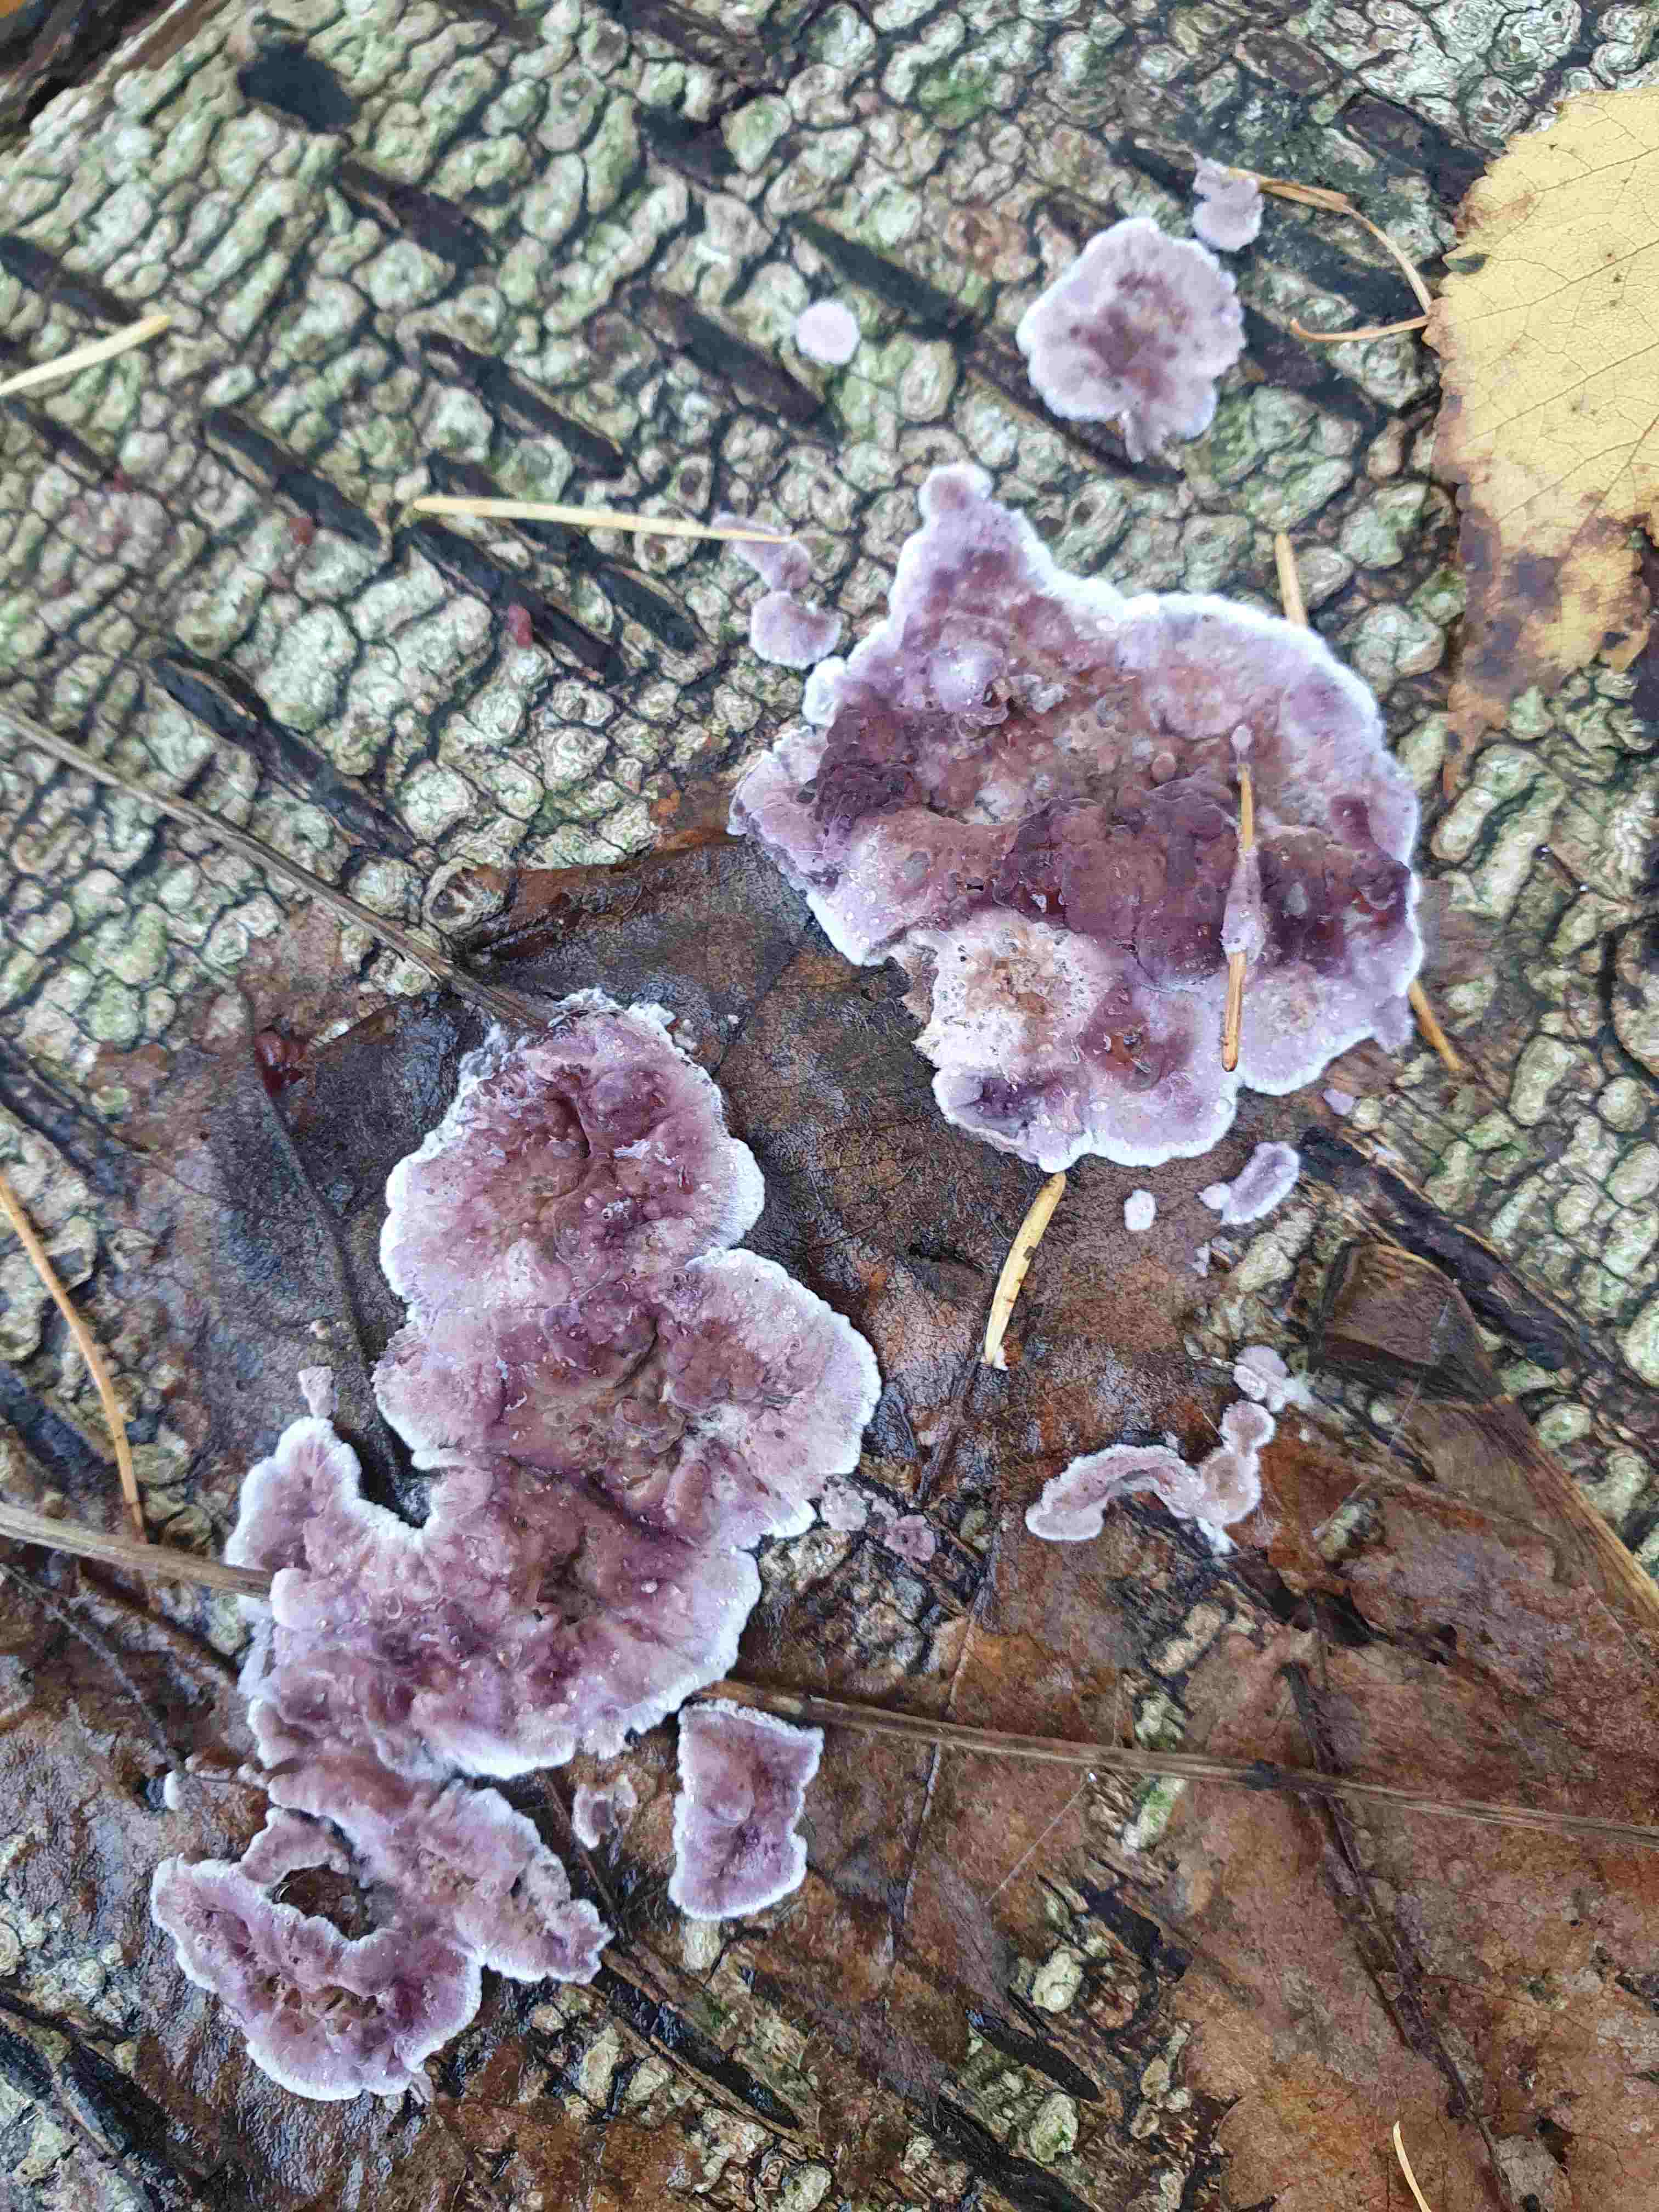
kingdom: Fungi
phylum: Ascomycota
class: Leotiomycetes
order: Helotiales
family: Gelatinodiscaceae
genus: Ascocoryne
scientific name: Ascocoryne sarcoides
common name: rødlilla sejskive
